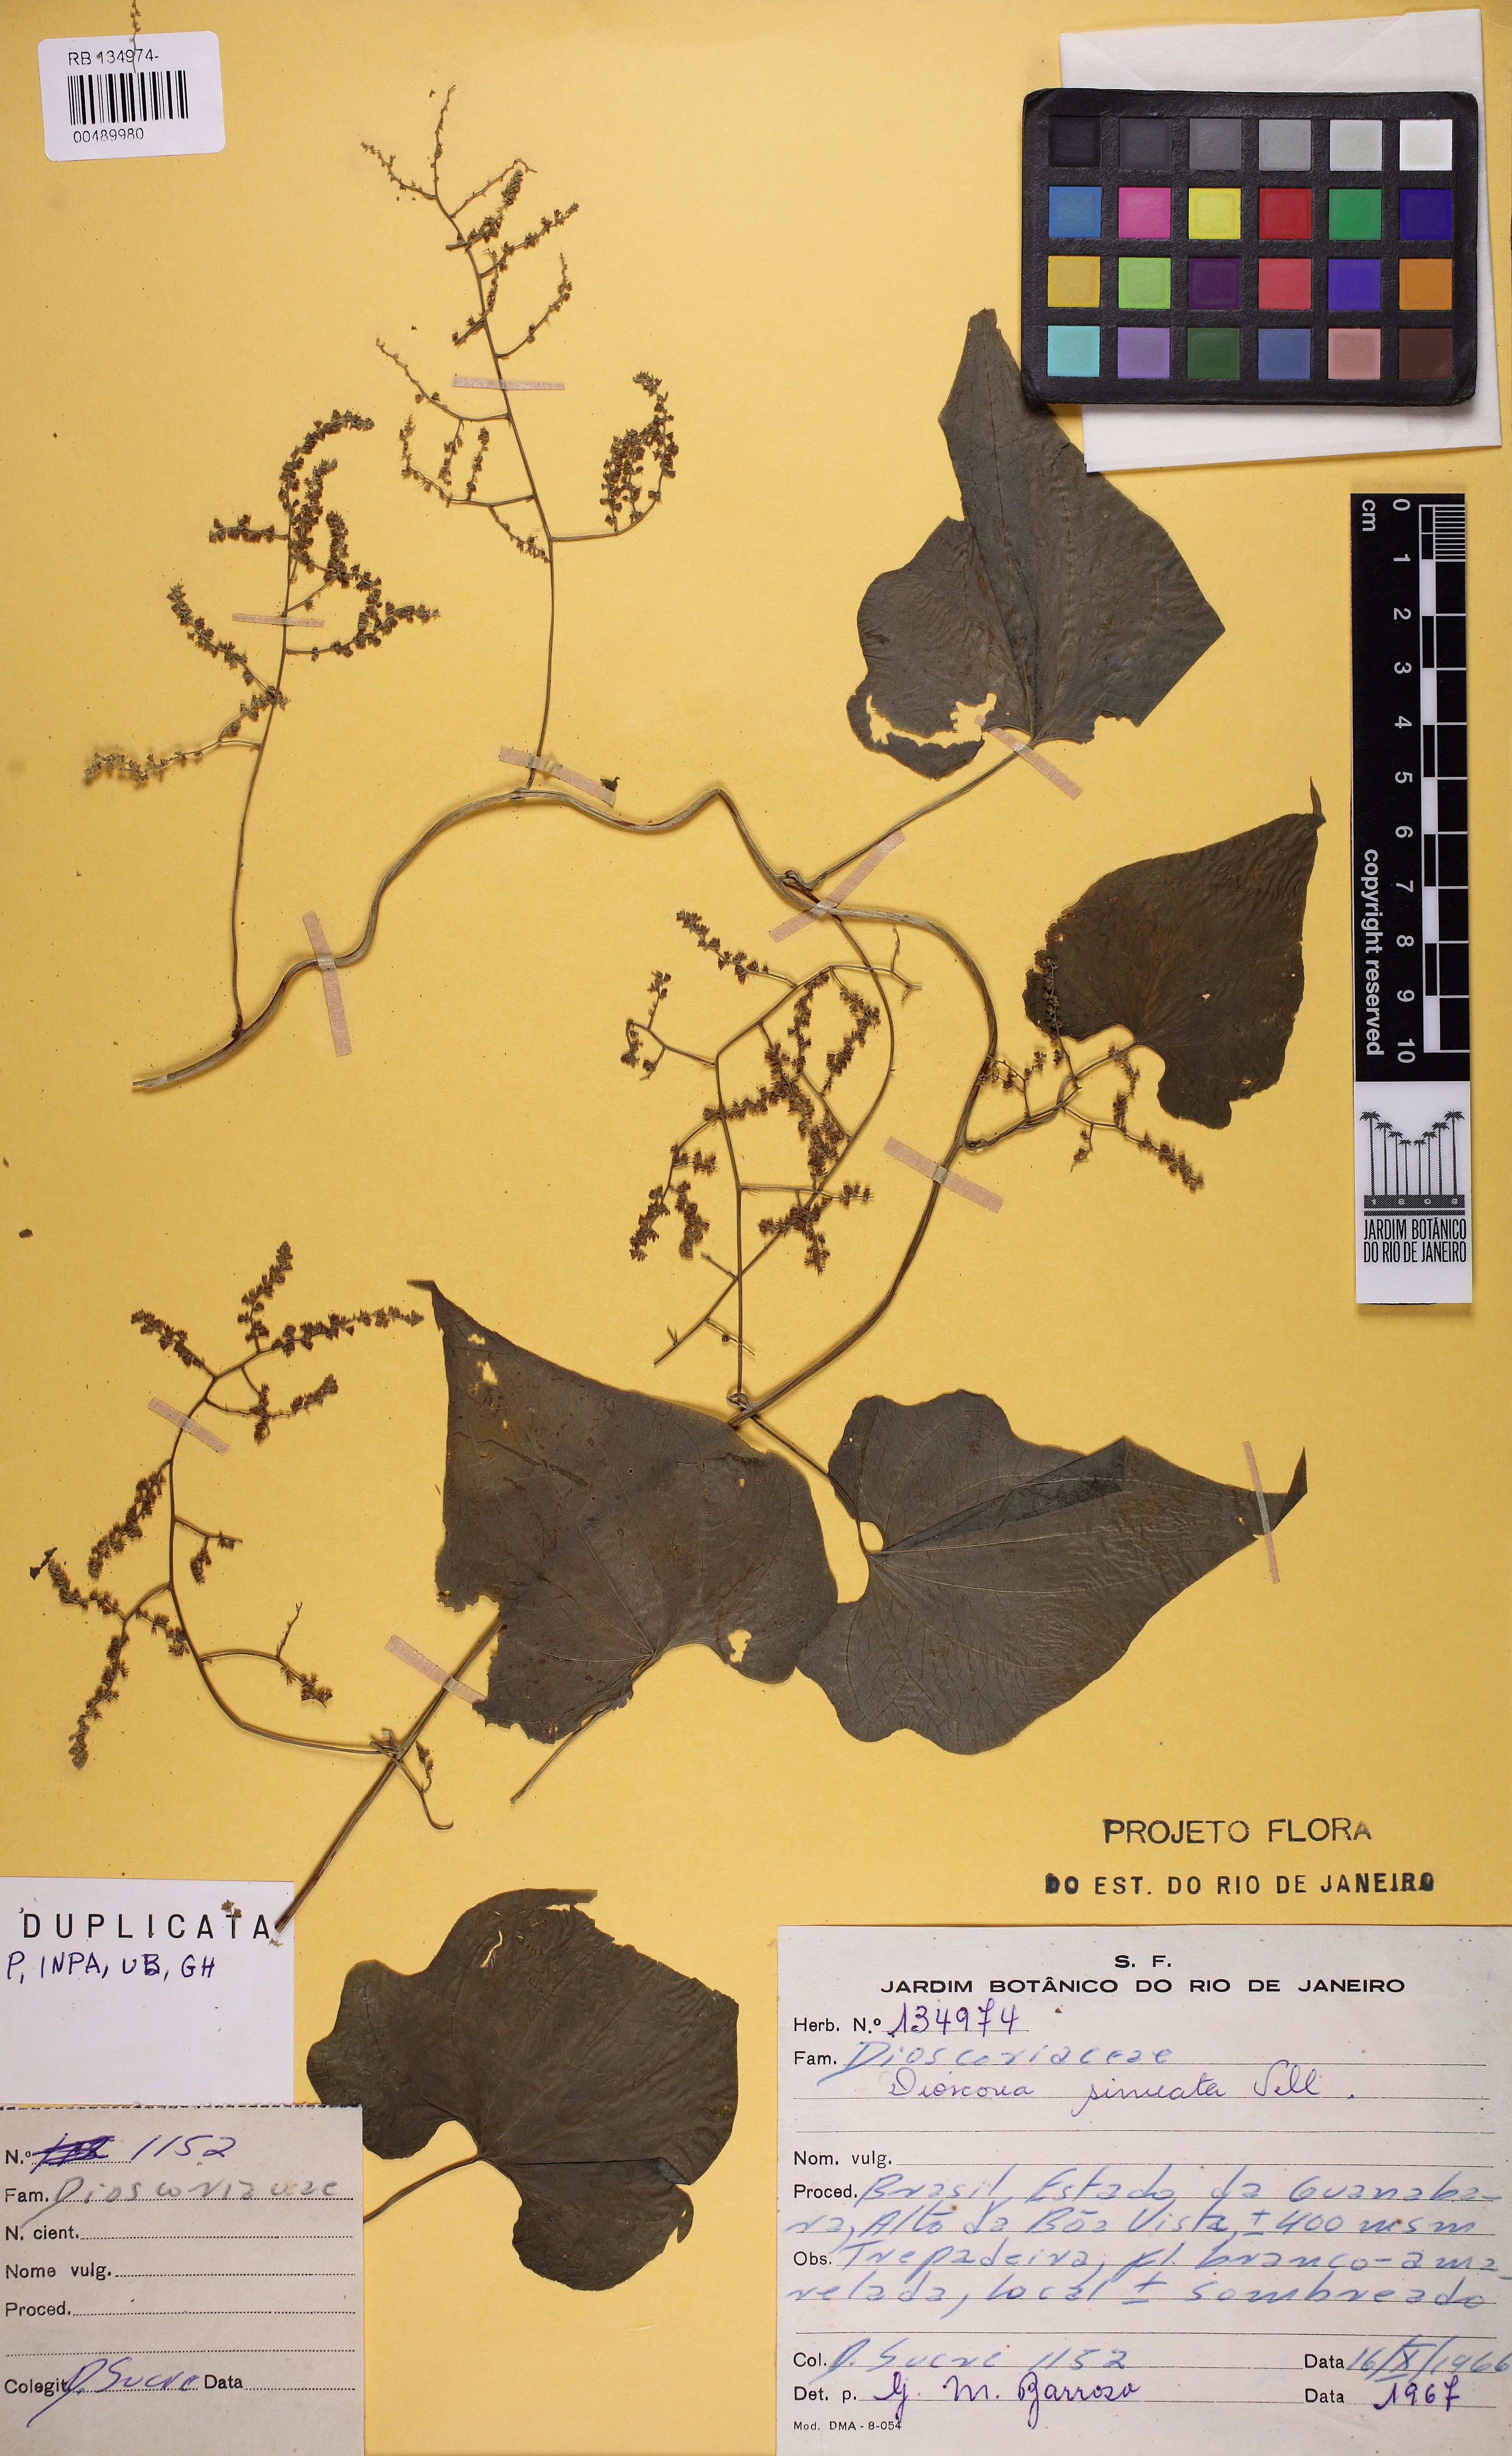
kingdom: Plantae
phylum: Tracheophyta
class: Liliopsida
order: Dioscoreales
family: Dioscoreaceae
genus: Dioscorea
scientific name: Dioscorea sinuata
